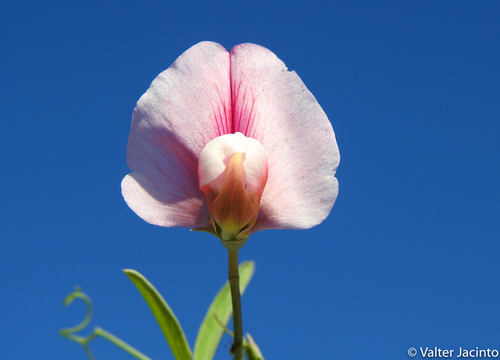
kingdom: Plantae
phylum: Tracheophyta
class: Magnoliopsida
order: Fabales
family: Fabaceae
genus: Lathyrus
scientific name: Lathyrus tingitanus
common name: Tangier pea
